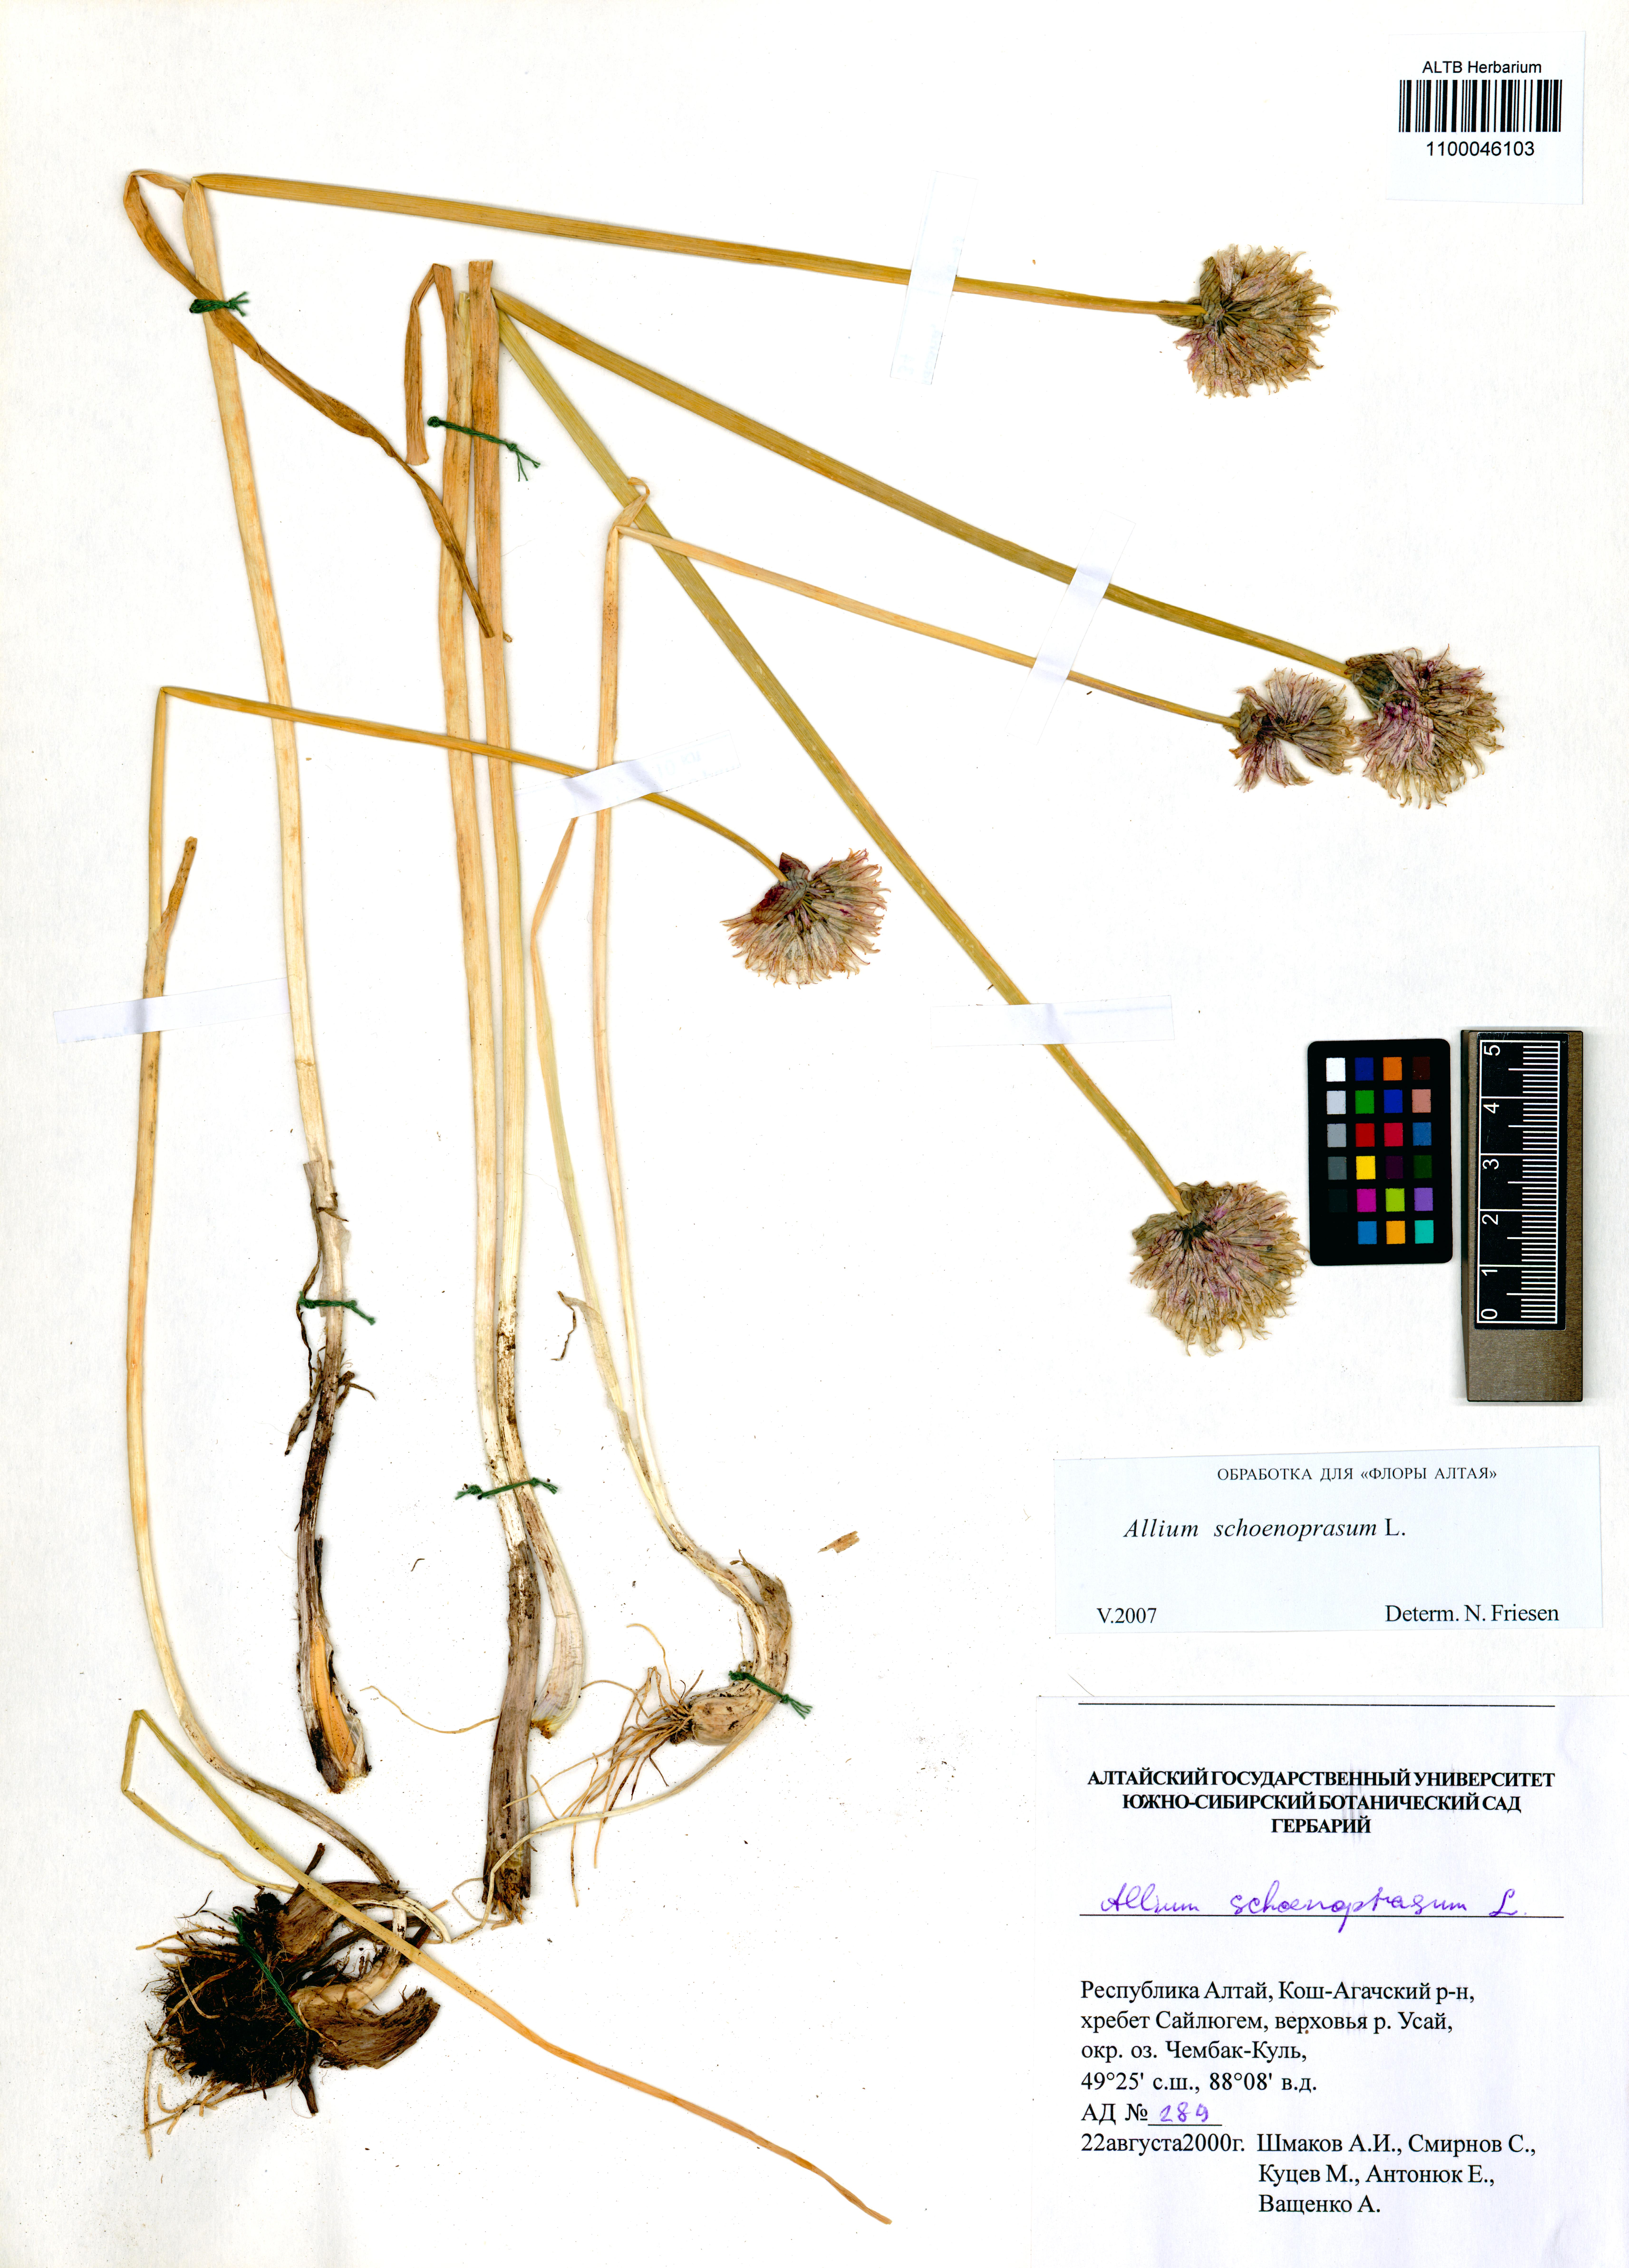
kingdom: Plantae
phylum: Tracheophyta
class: Liliopsida
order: Asparagales
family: Amaryllidaceae
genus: Allium
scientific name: Allium schoenoprasum
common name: Chives
